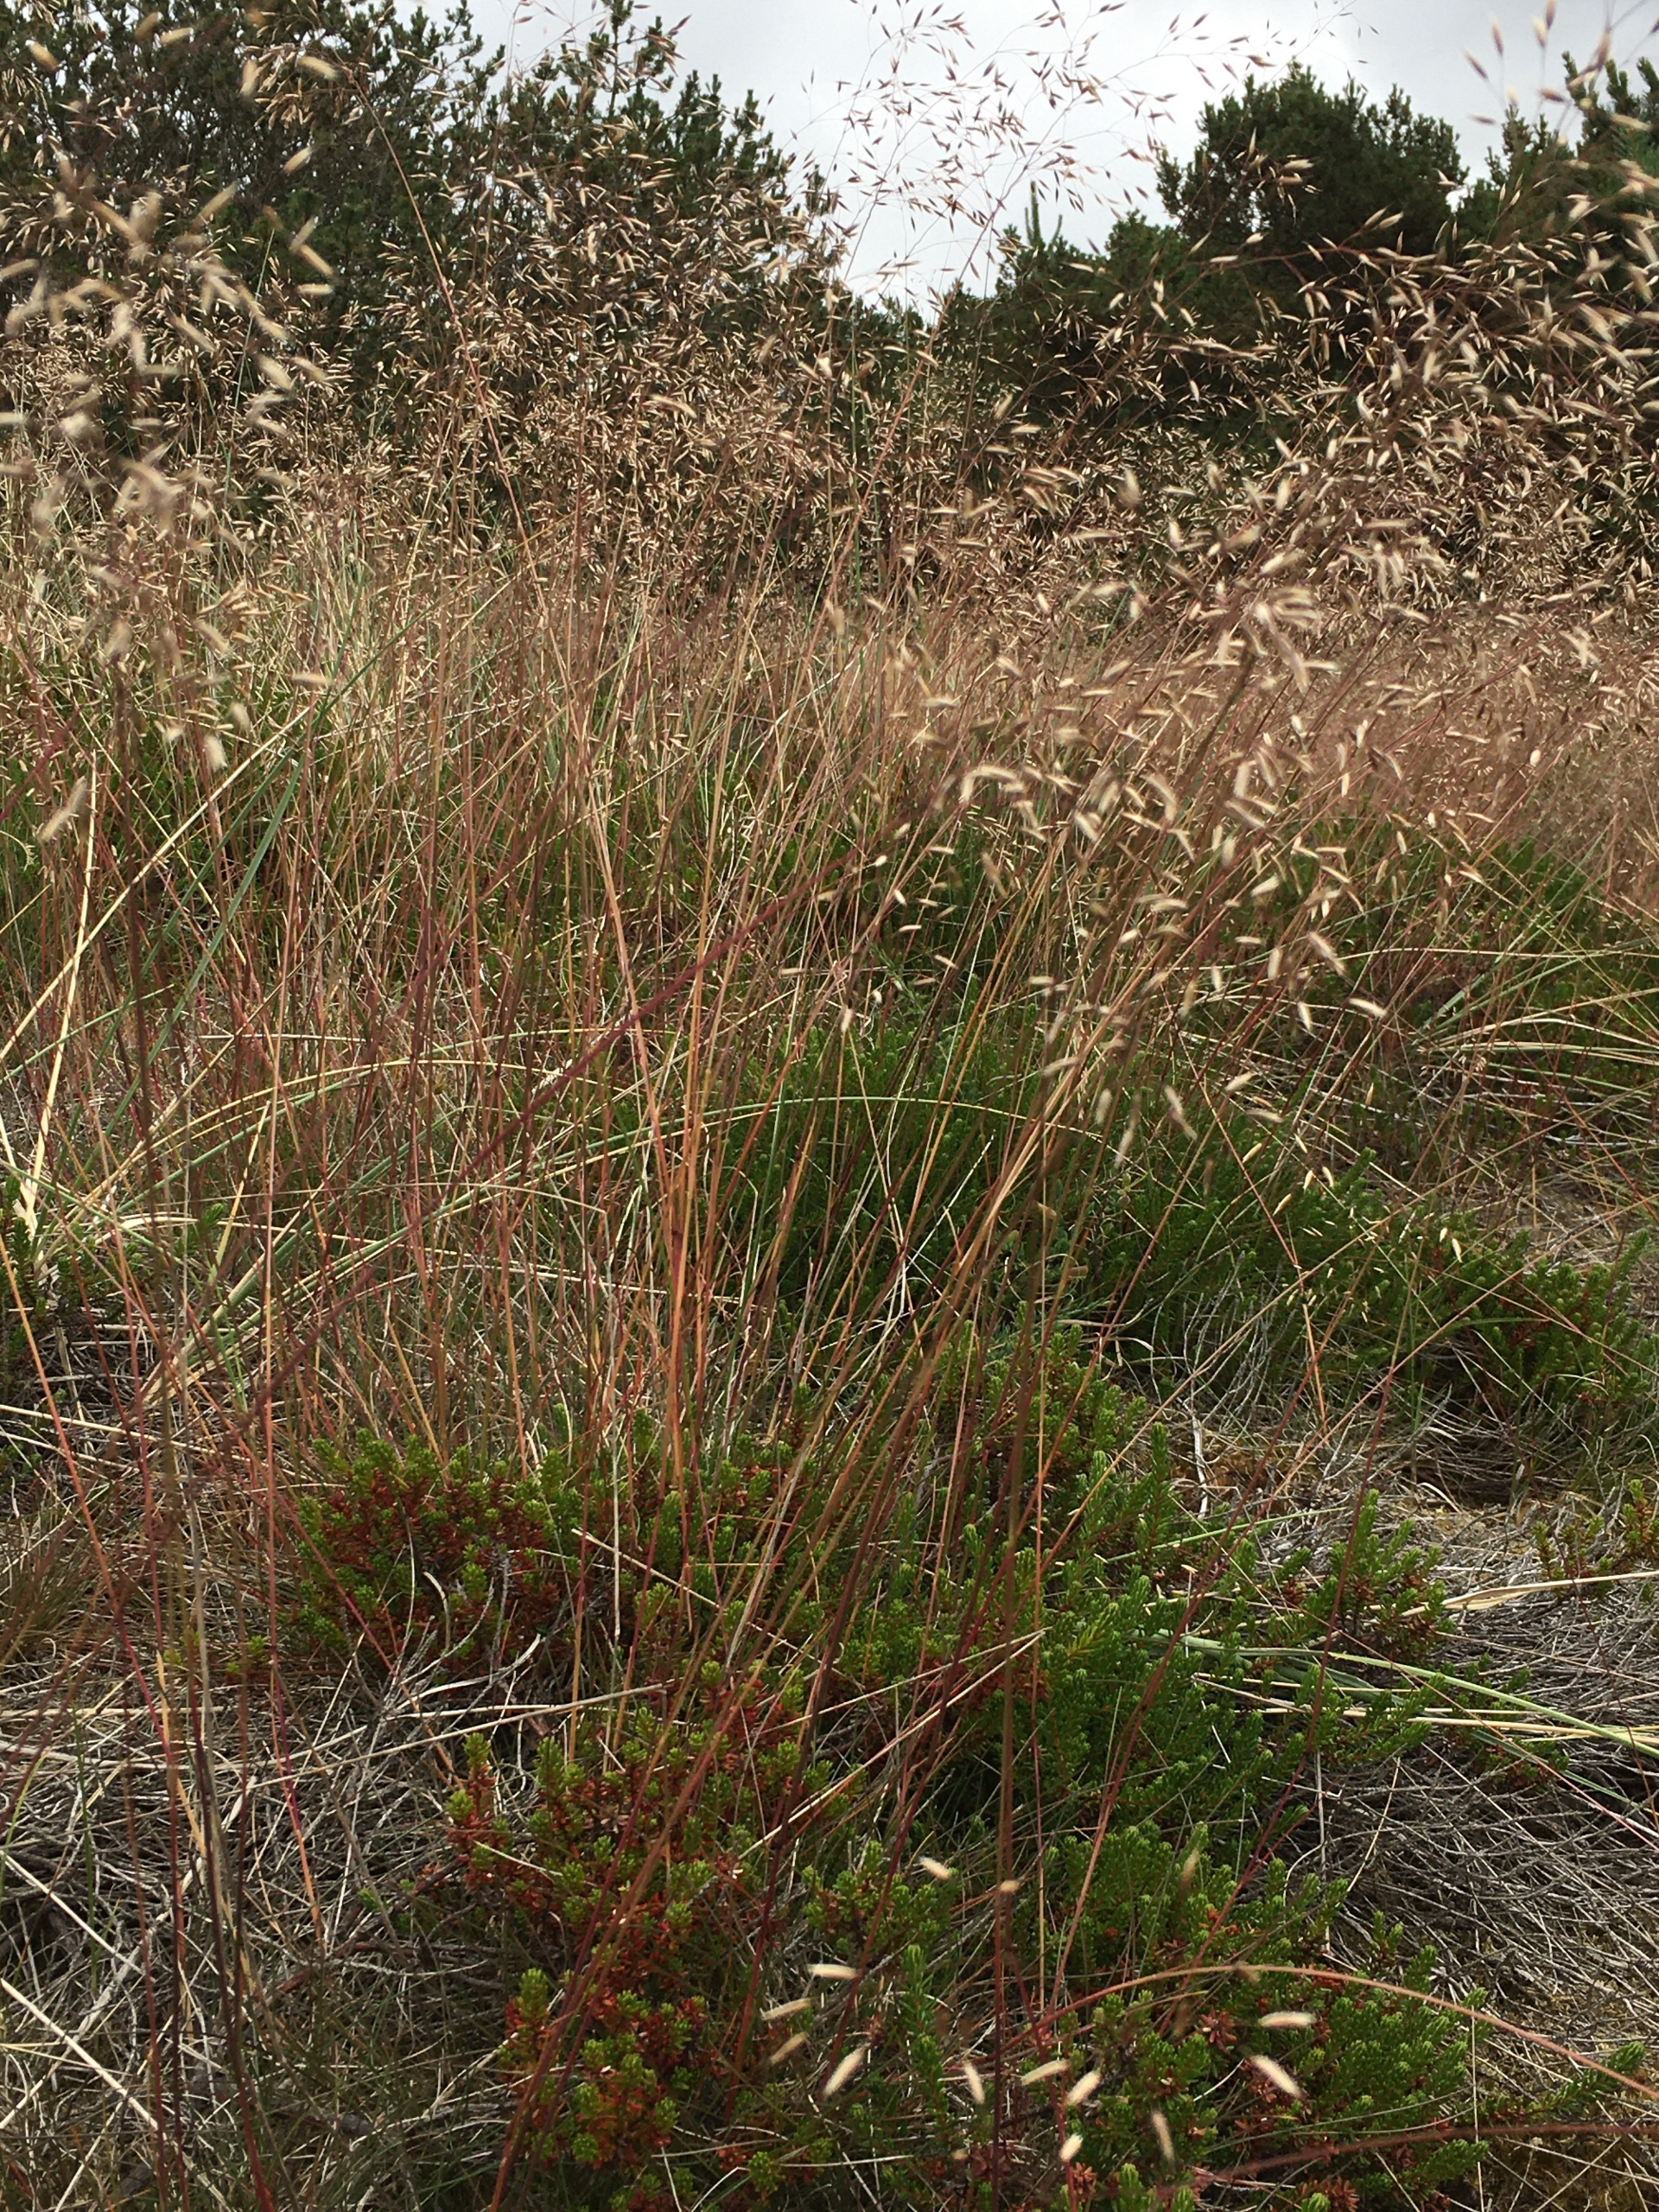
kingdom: Plantae
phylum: Tracheophyta
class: Liliopsida
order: Poales
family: Poaceae
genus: Avenella
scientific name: Avenella flexuosa
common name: Bølget bunke
